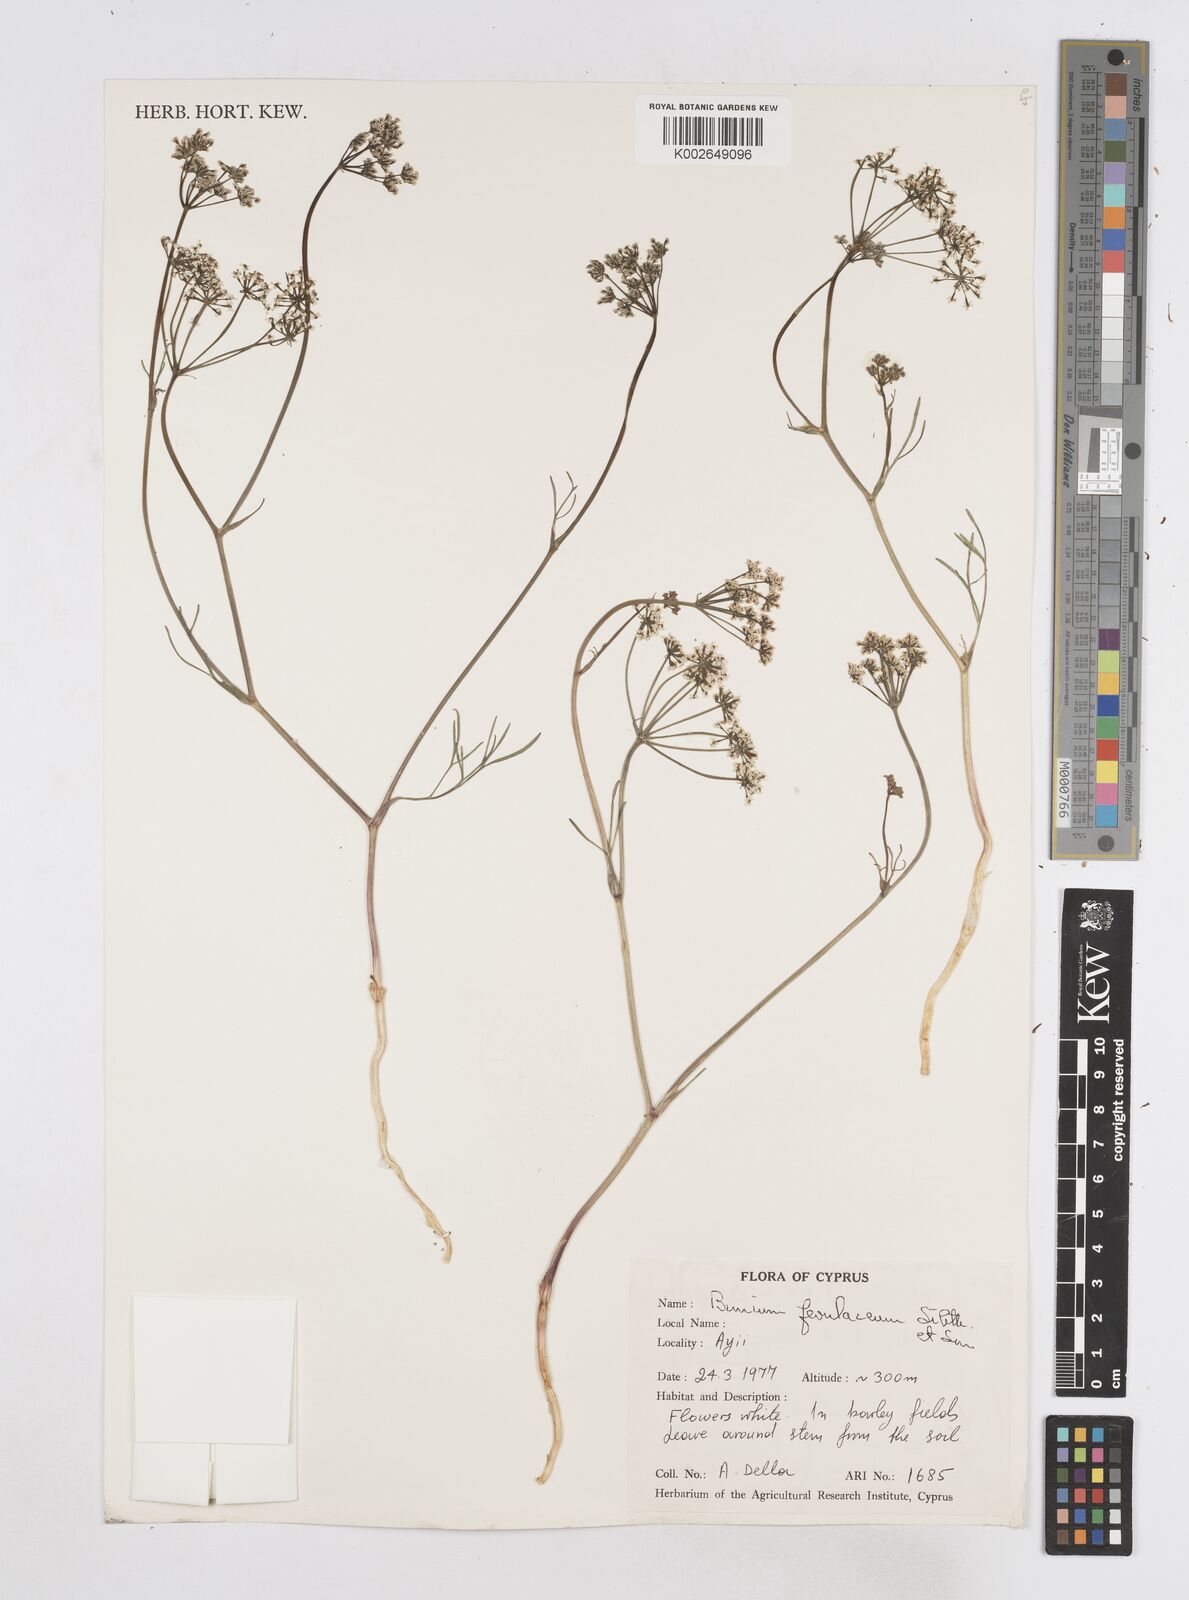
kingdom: Plantae
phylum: Tracheophyta
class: Magnoliopsida
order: Apiales
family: Apiaceae
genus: Bunium
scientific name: Bunium ferulaceum
